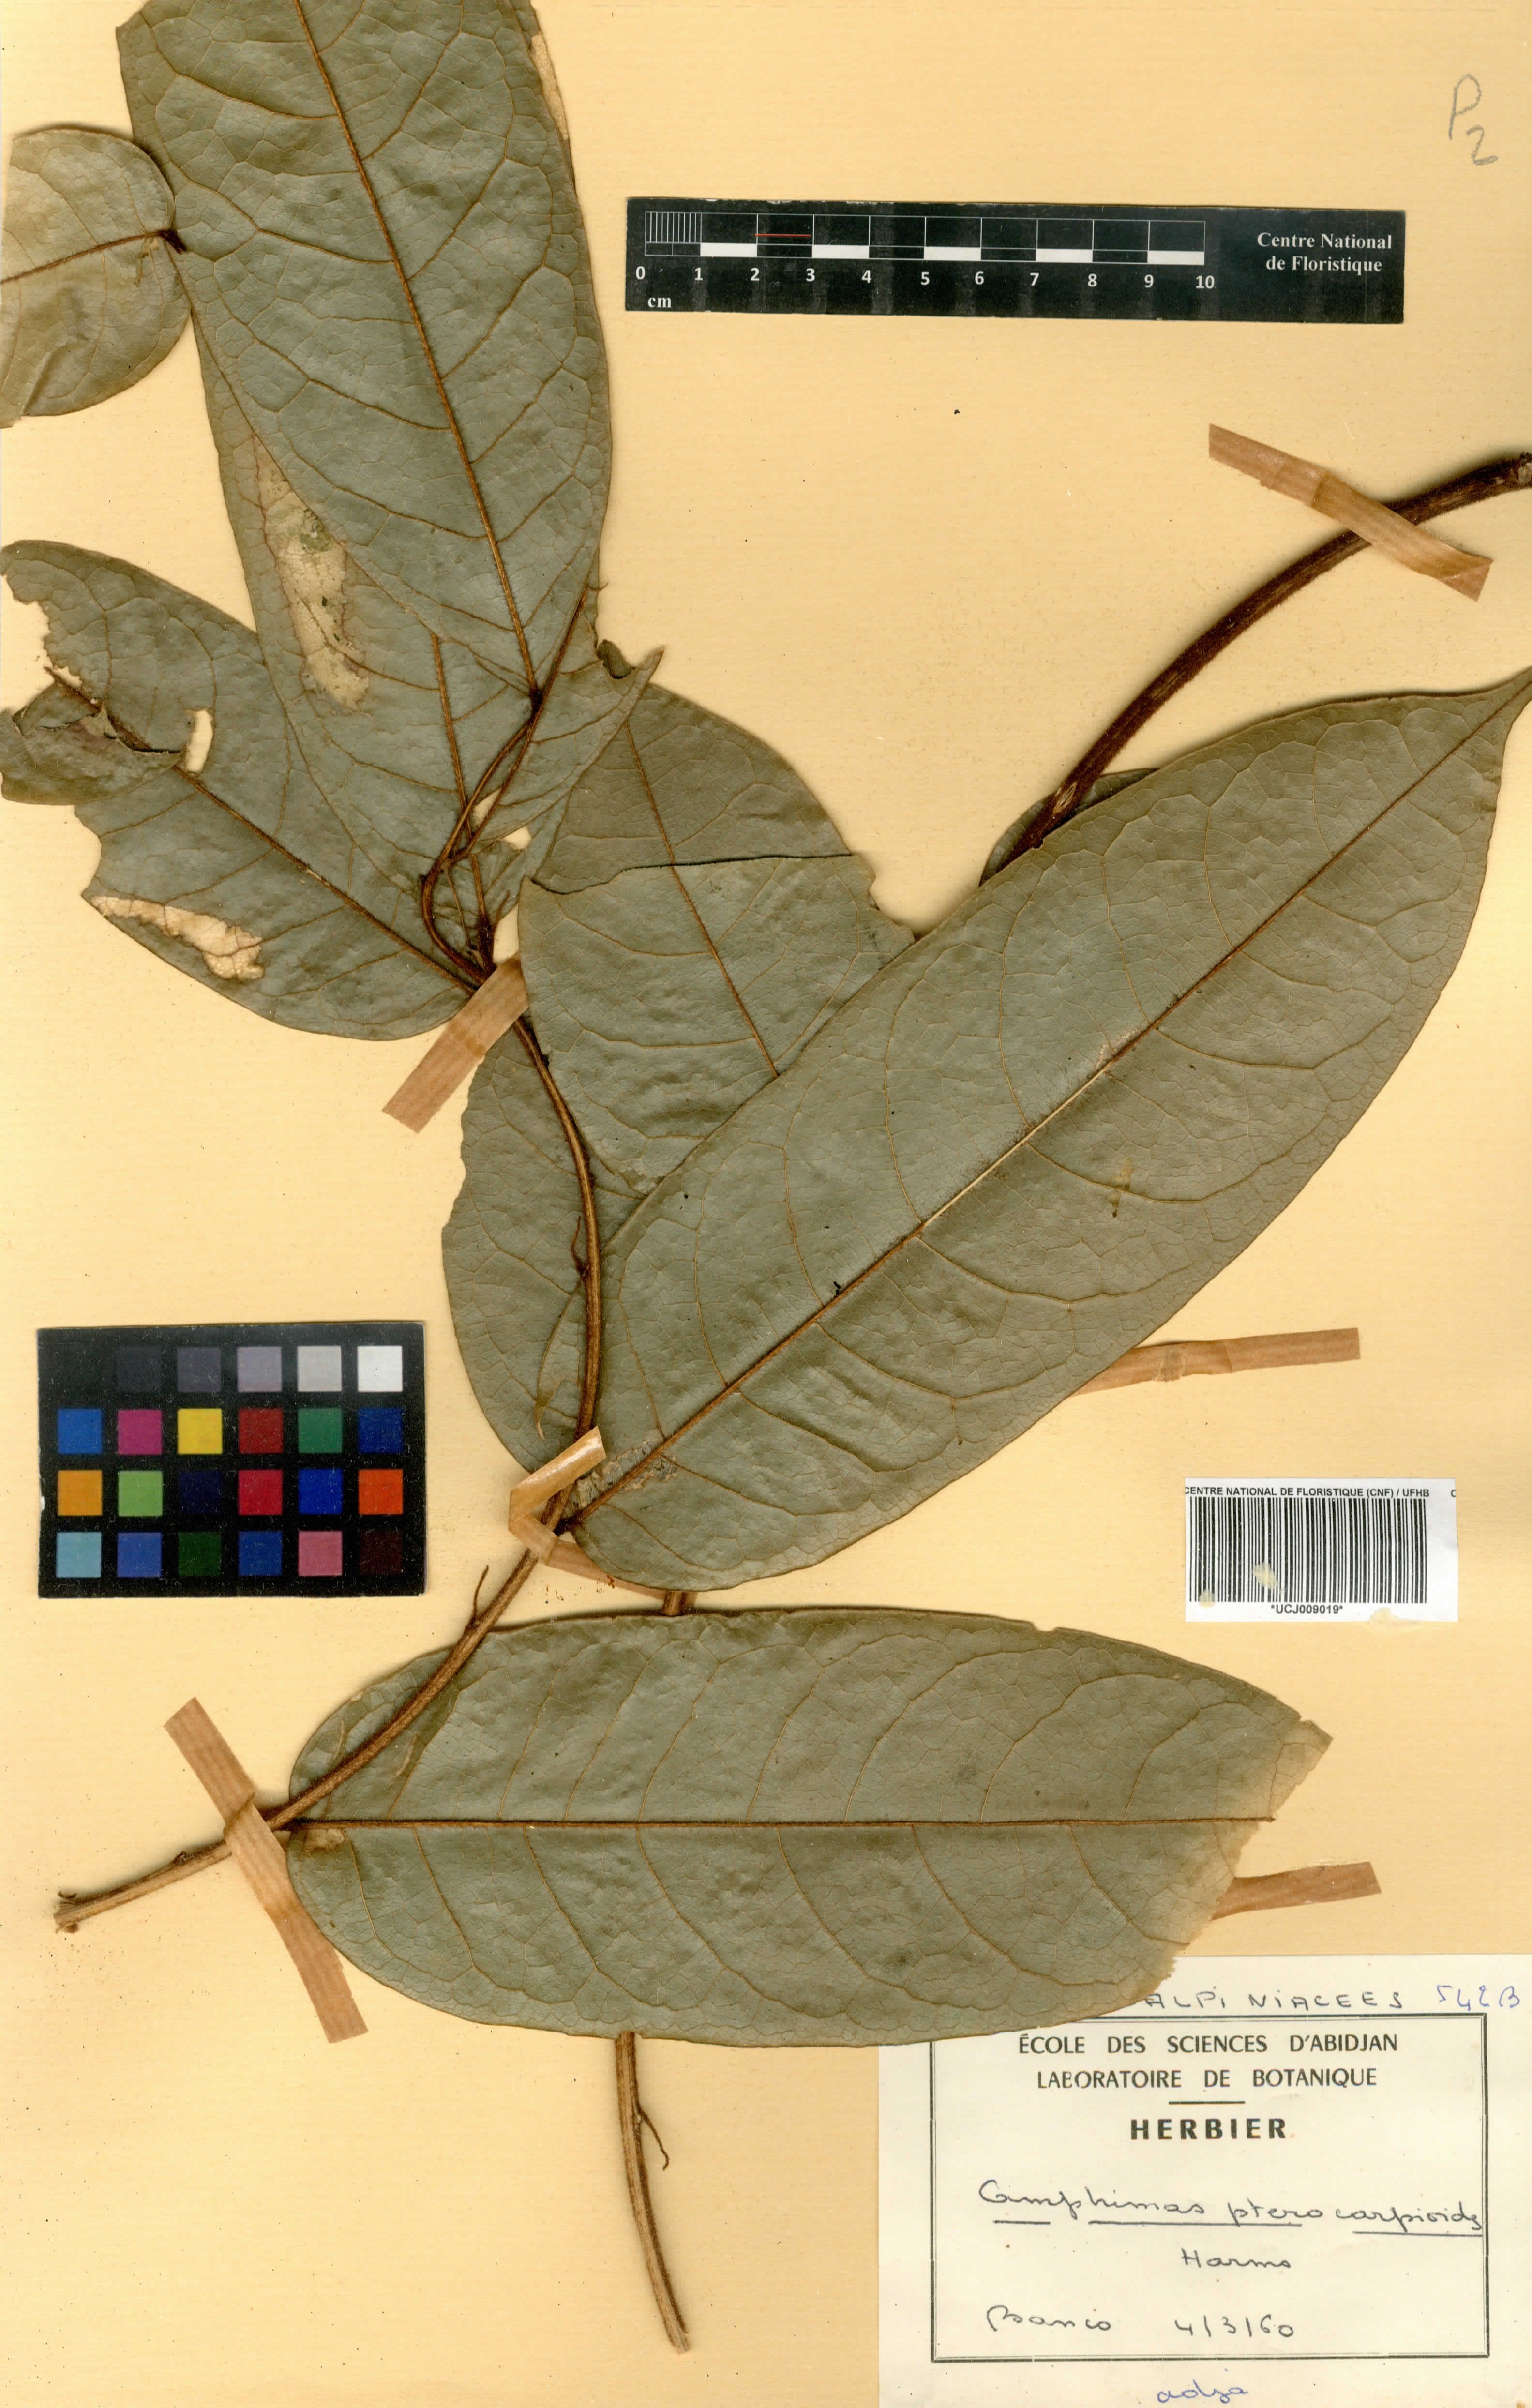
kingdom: Plantae
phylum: Tracheophyta
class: Magnoliopsida
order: Fabales
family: Fabaceae
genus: Amphimas
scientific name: Amphimas pterocarpoides
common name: Bokanga
